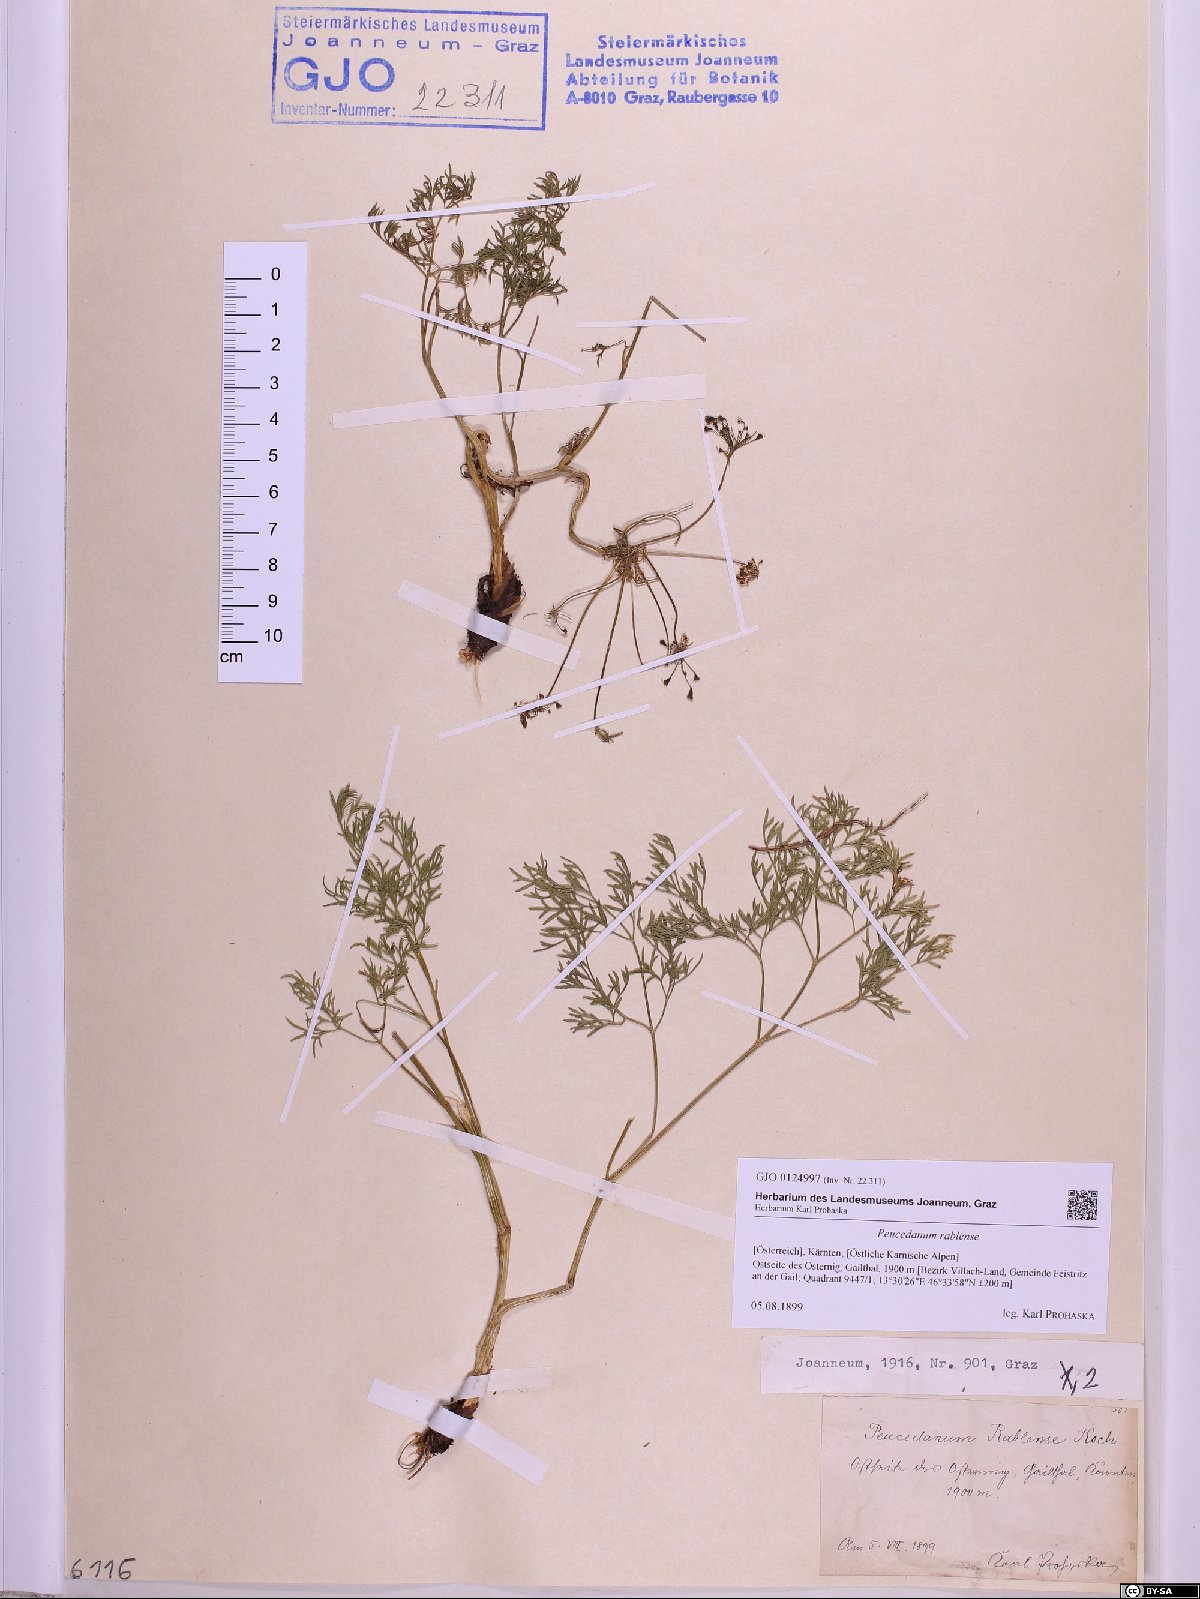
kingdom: Plantae
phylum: Tracheophyta
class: Magnoliopsida
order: Apiales
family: Apiaceae
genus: Peucedanum
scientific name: Peucedanum rablense
